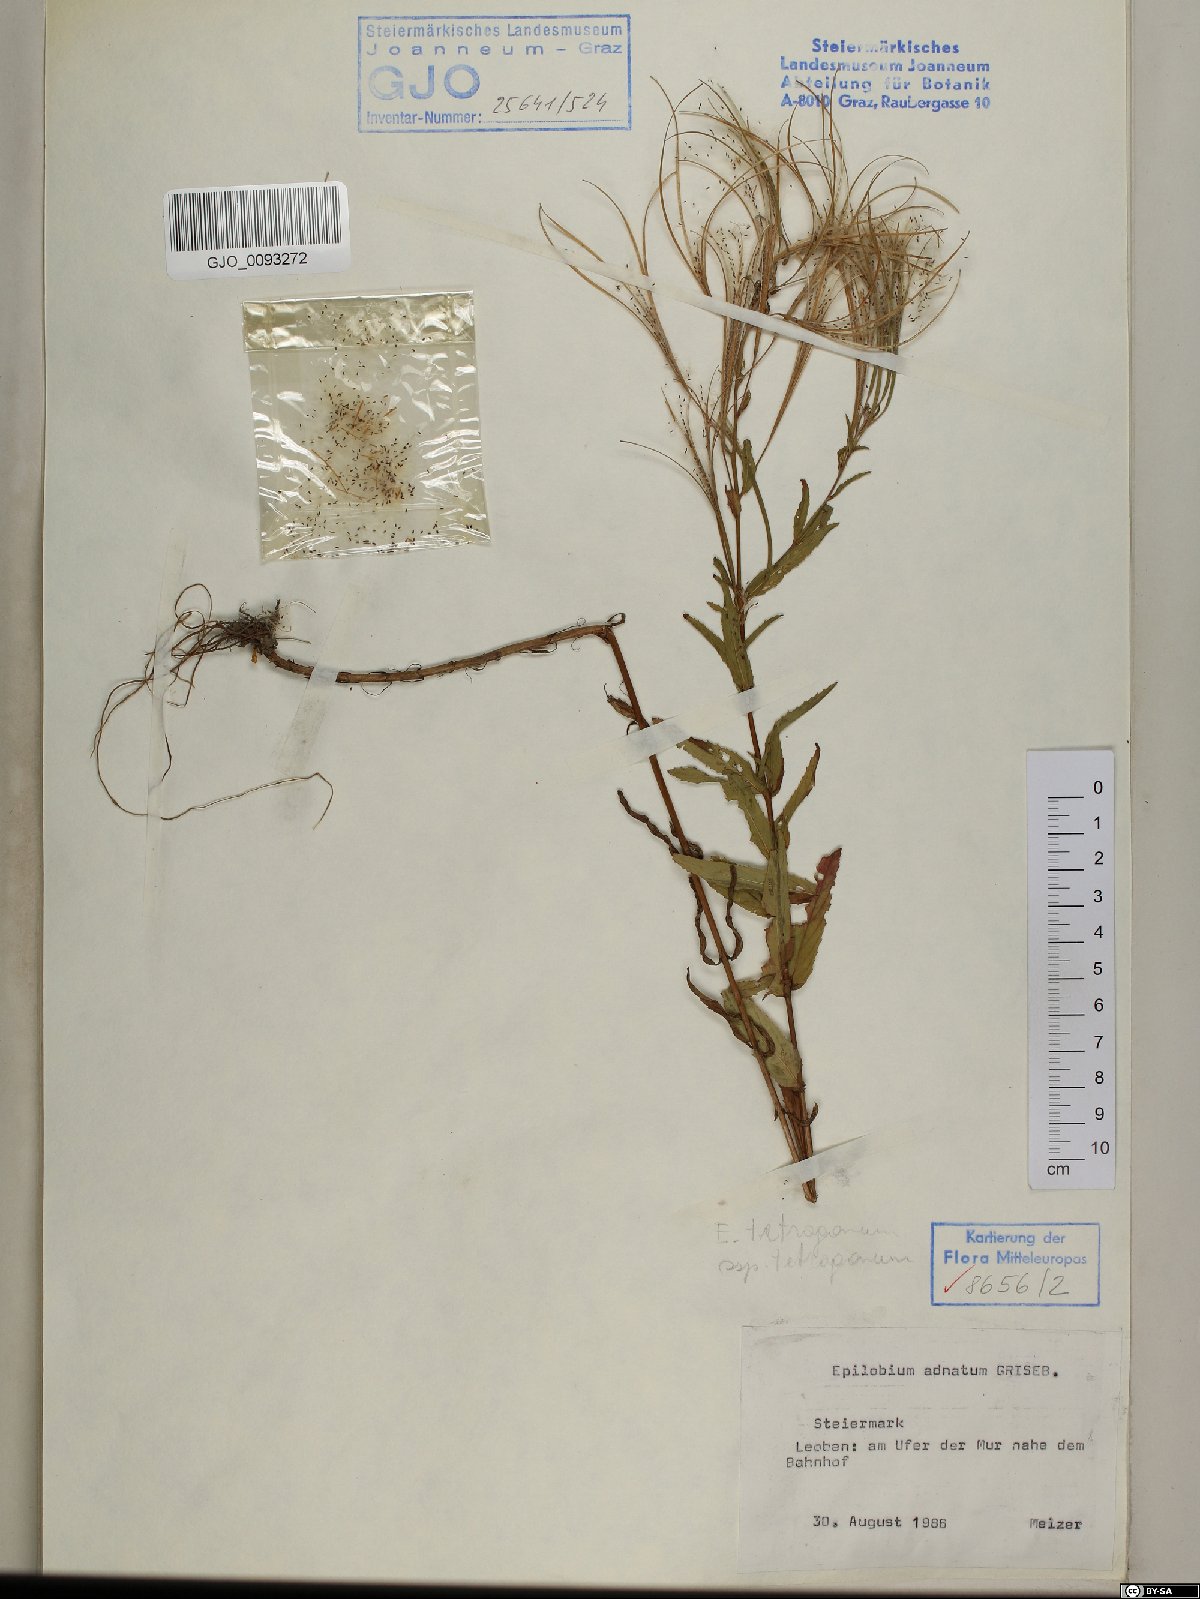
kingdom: Plantae
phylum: Tracheophyta
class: Magnoliopsida
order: Myrtales
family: Onagraceae
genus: Epilobium
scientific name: Epilobium tetragonum
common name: Square-stemmed willowherb
